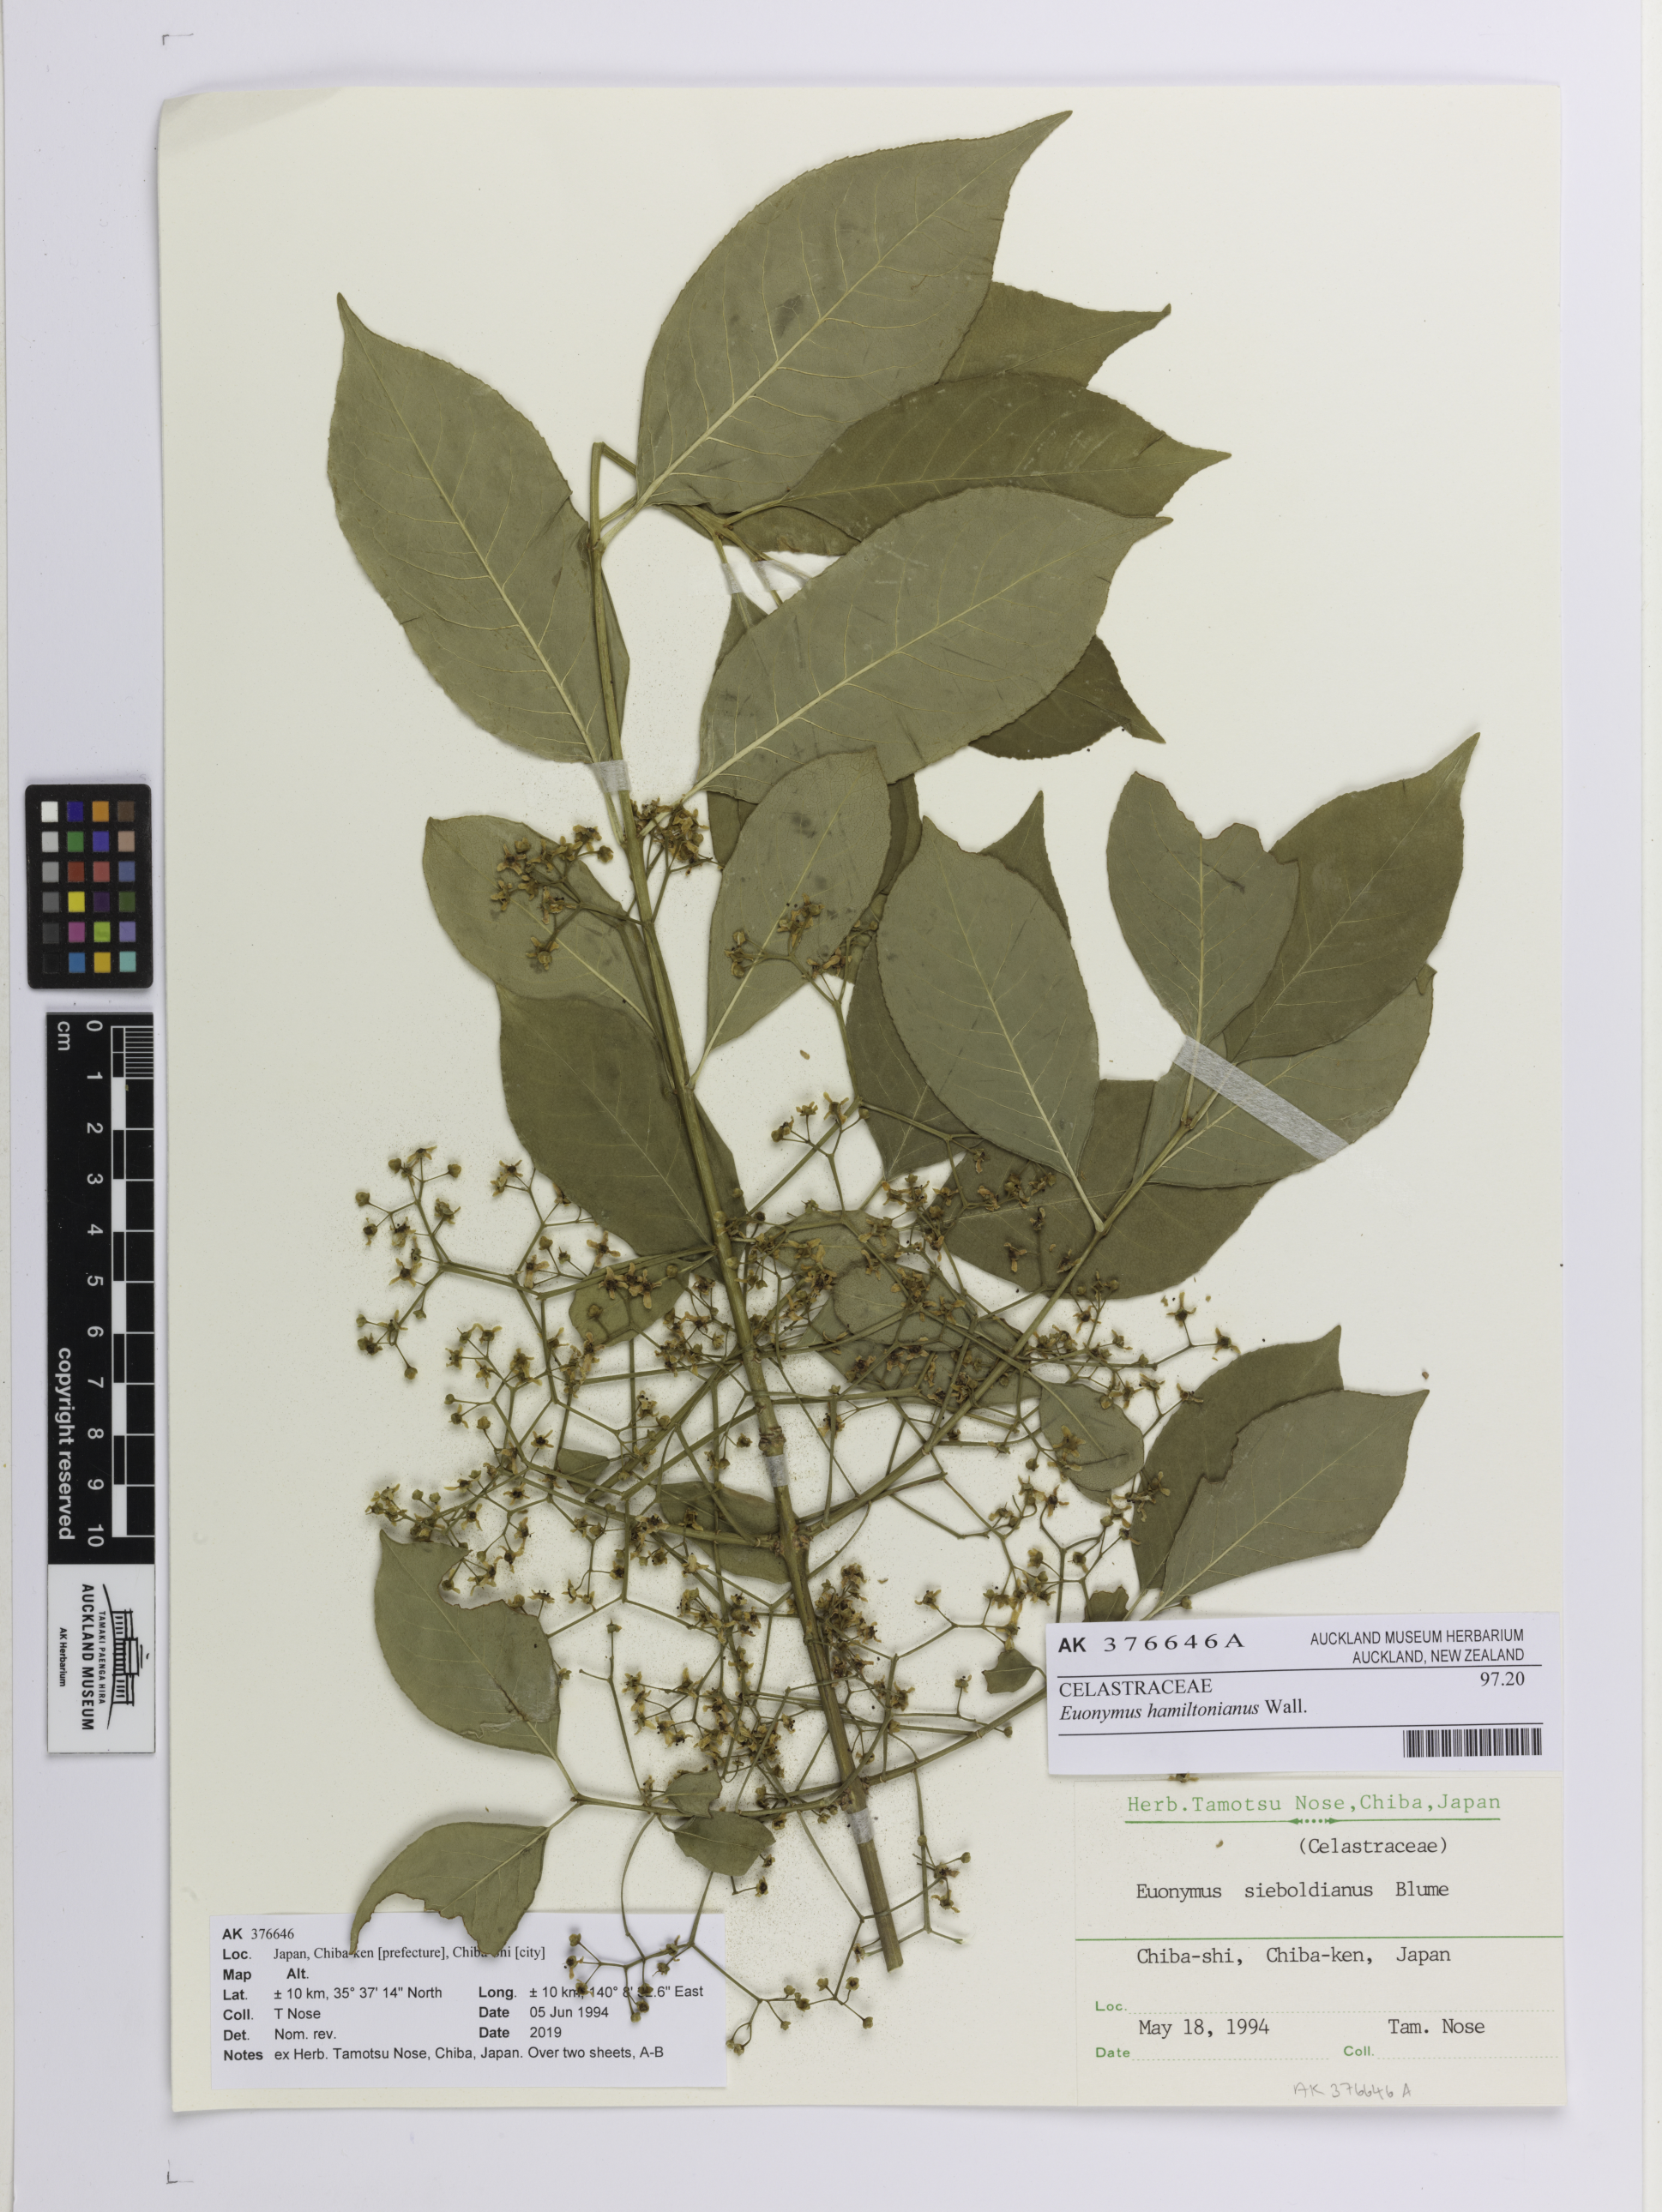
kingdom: Plantae
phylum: Tracheophyta
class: Magnoliopsida
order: Celastrales
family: Celastraceae
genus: Euonymus
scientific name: Euonymus hamiltonianus
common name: Hamilton's spindletree
